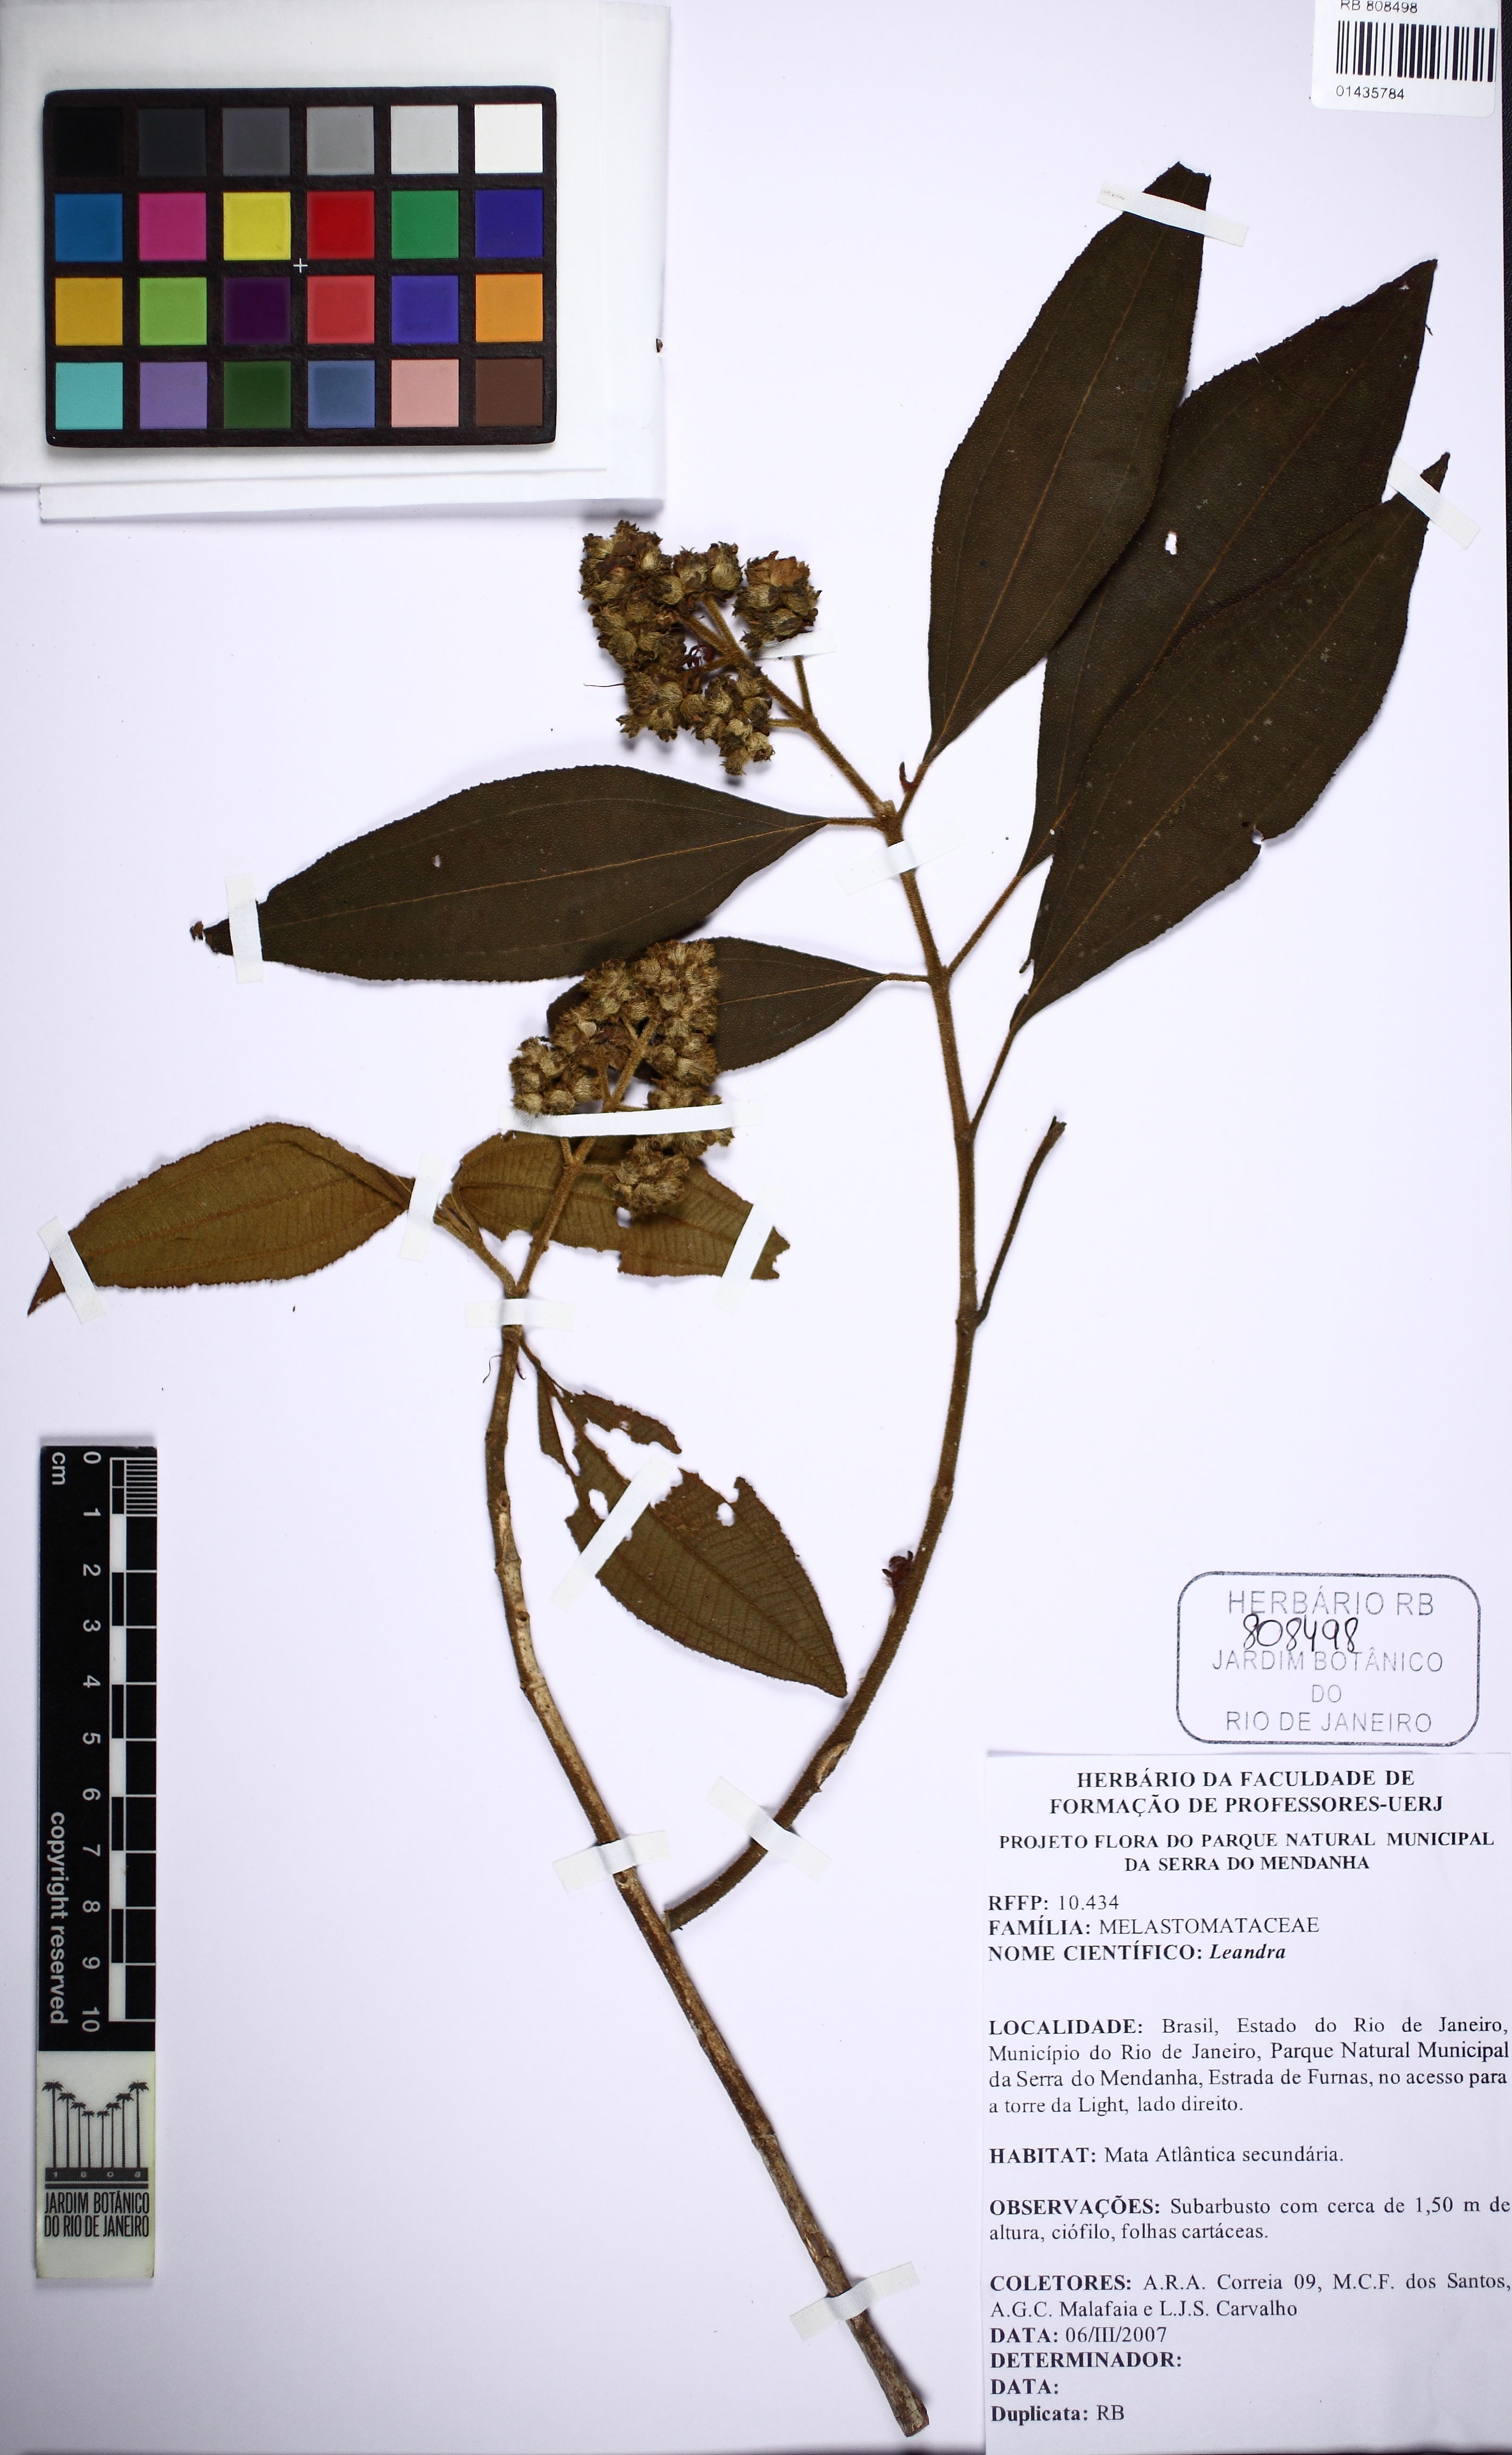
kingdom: Plantae
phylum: Tracheophyta
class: Magnoliopsida
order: Myrtales
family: Melastomataceae
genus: Miconia
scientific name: Miconia
